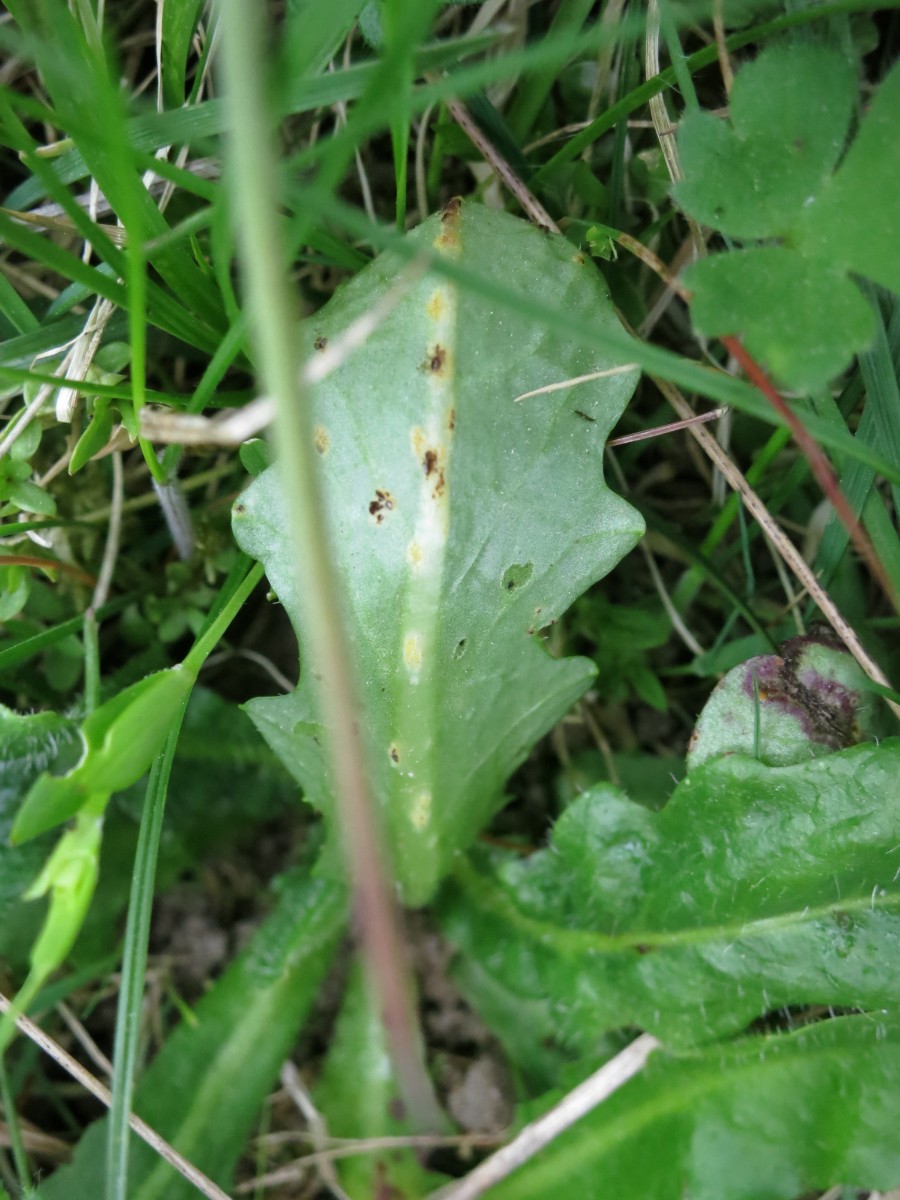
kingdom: Fungi
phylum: Basidiomycota
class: Pucciniomycetes
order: Pucciniales
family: Pucciniaceae
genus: Puccinia
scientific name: Puccinia hieracii
